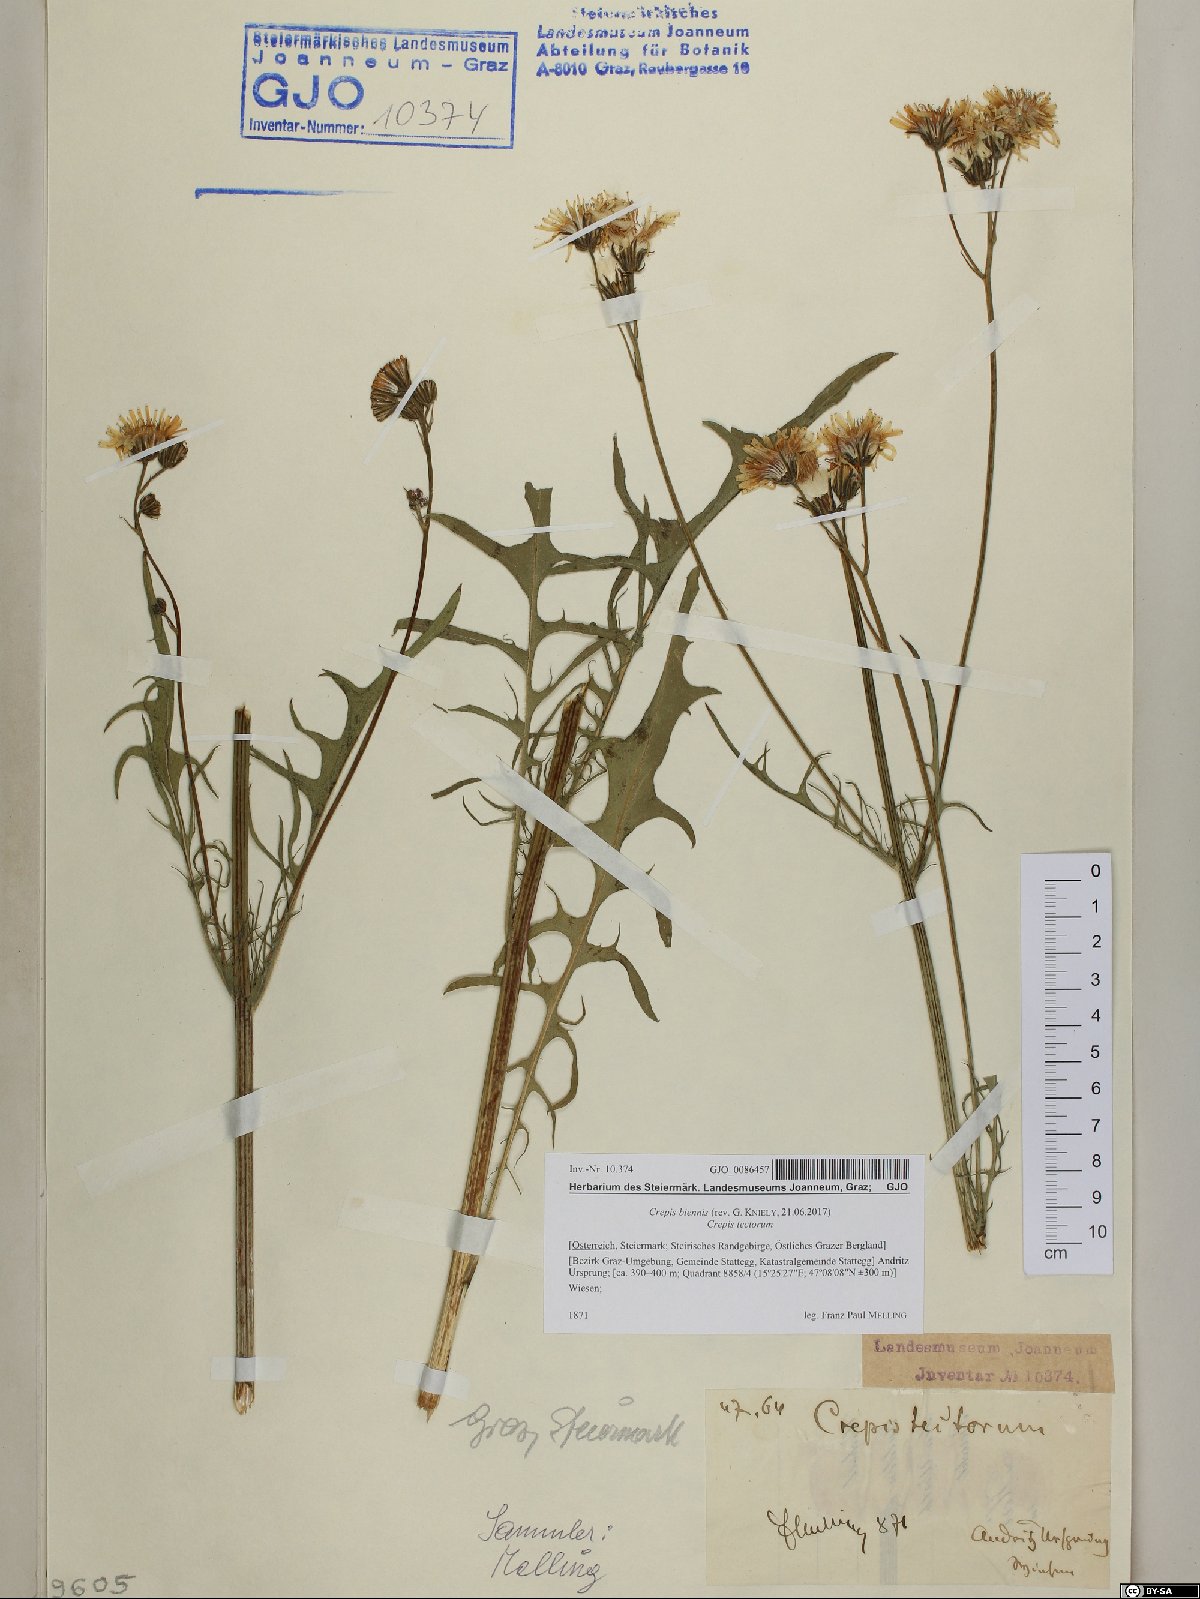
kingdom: Plantae
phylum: Tracheophyta
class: Magnoliopsida
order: Asterales
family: Asteraceae
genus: Crepis
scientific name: Crepis biennis
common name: Rough hawk's-beard
